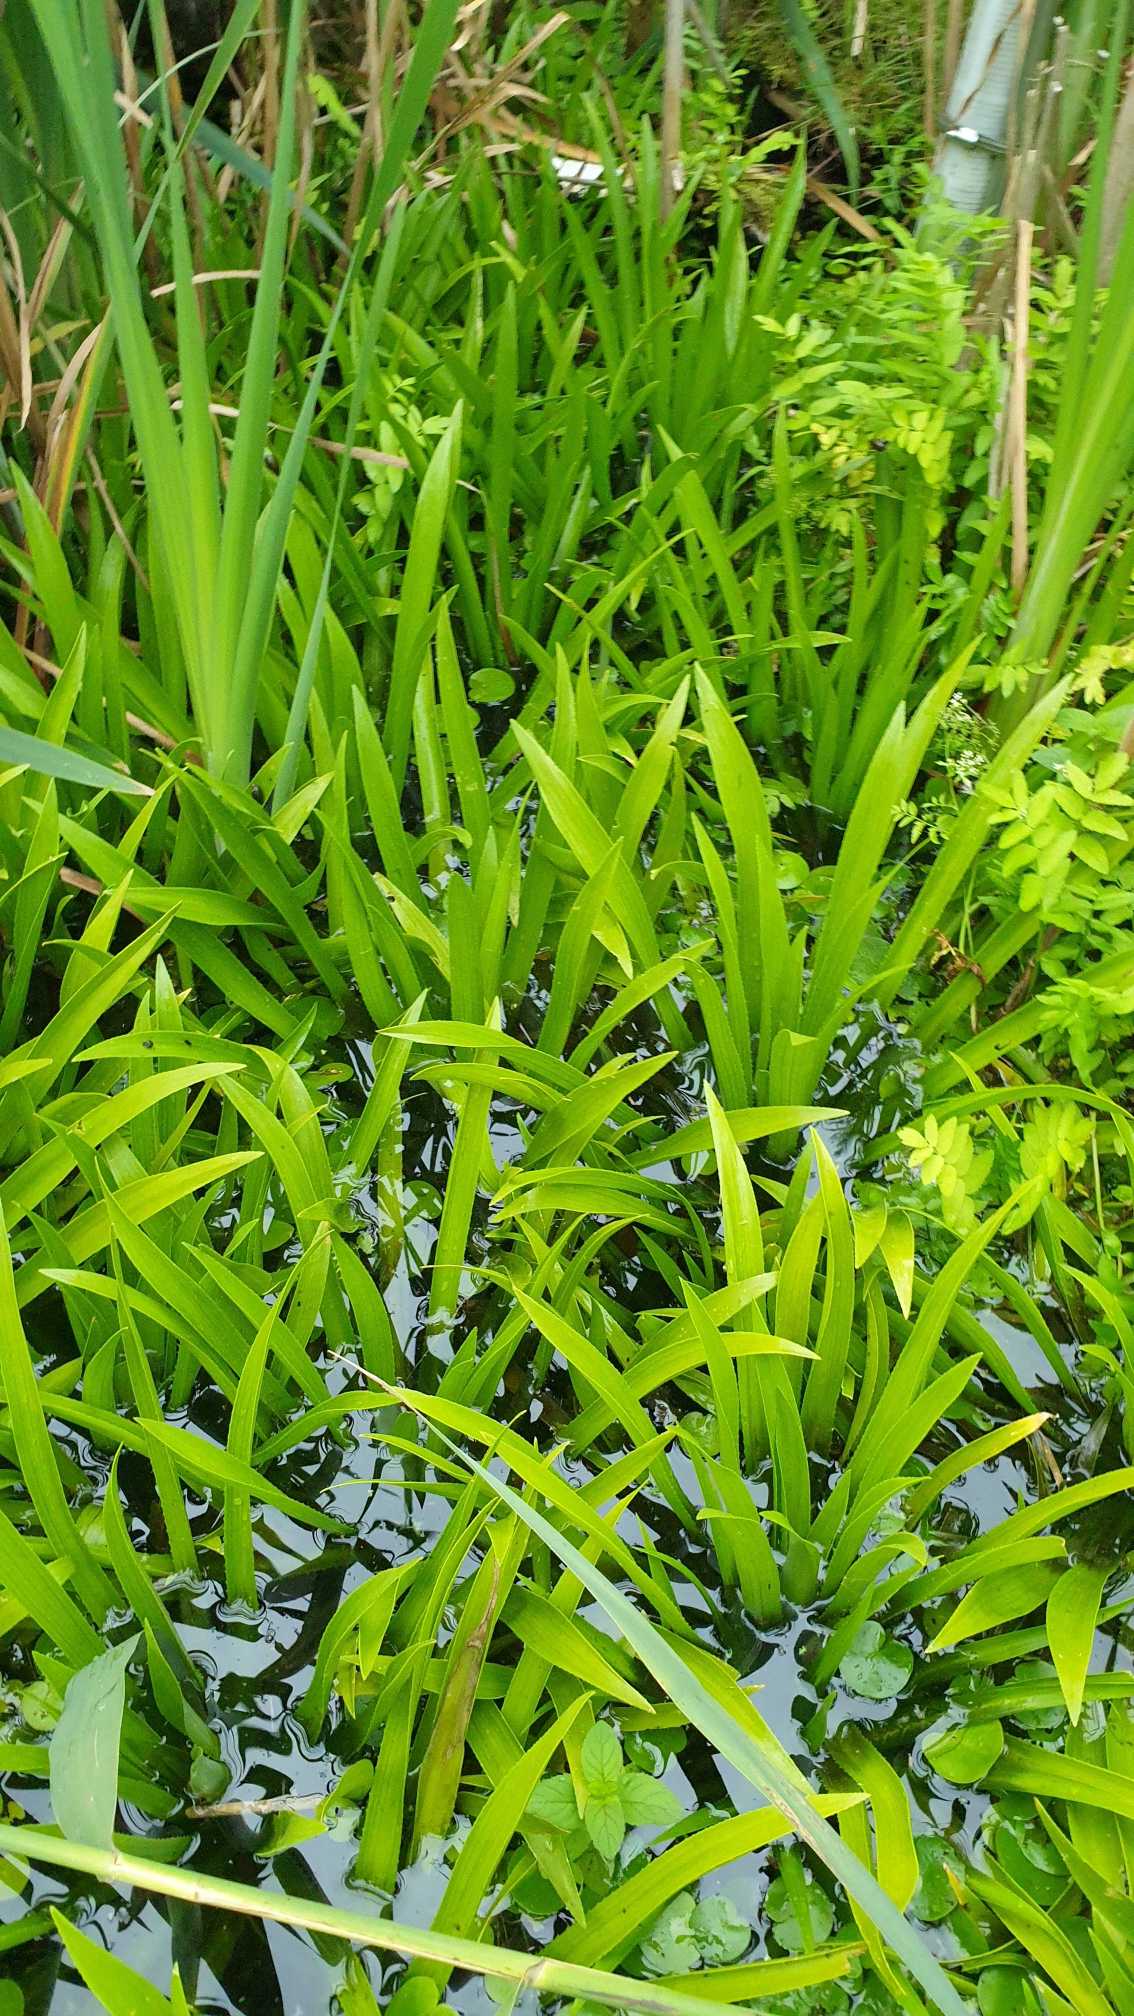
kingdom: Plantae
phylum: Tracheophyta
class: Liliopsida
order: Alismatales
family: Hydrocharitaceae
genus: Stratiotes
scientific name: Stratiotes aloides
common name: Krebseklo
